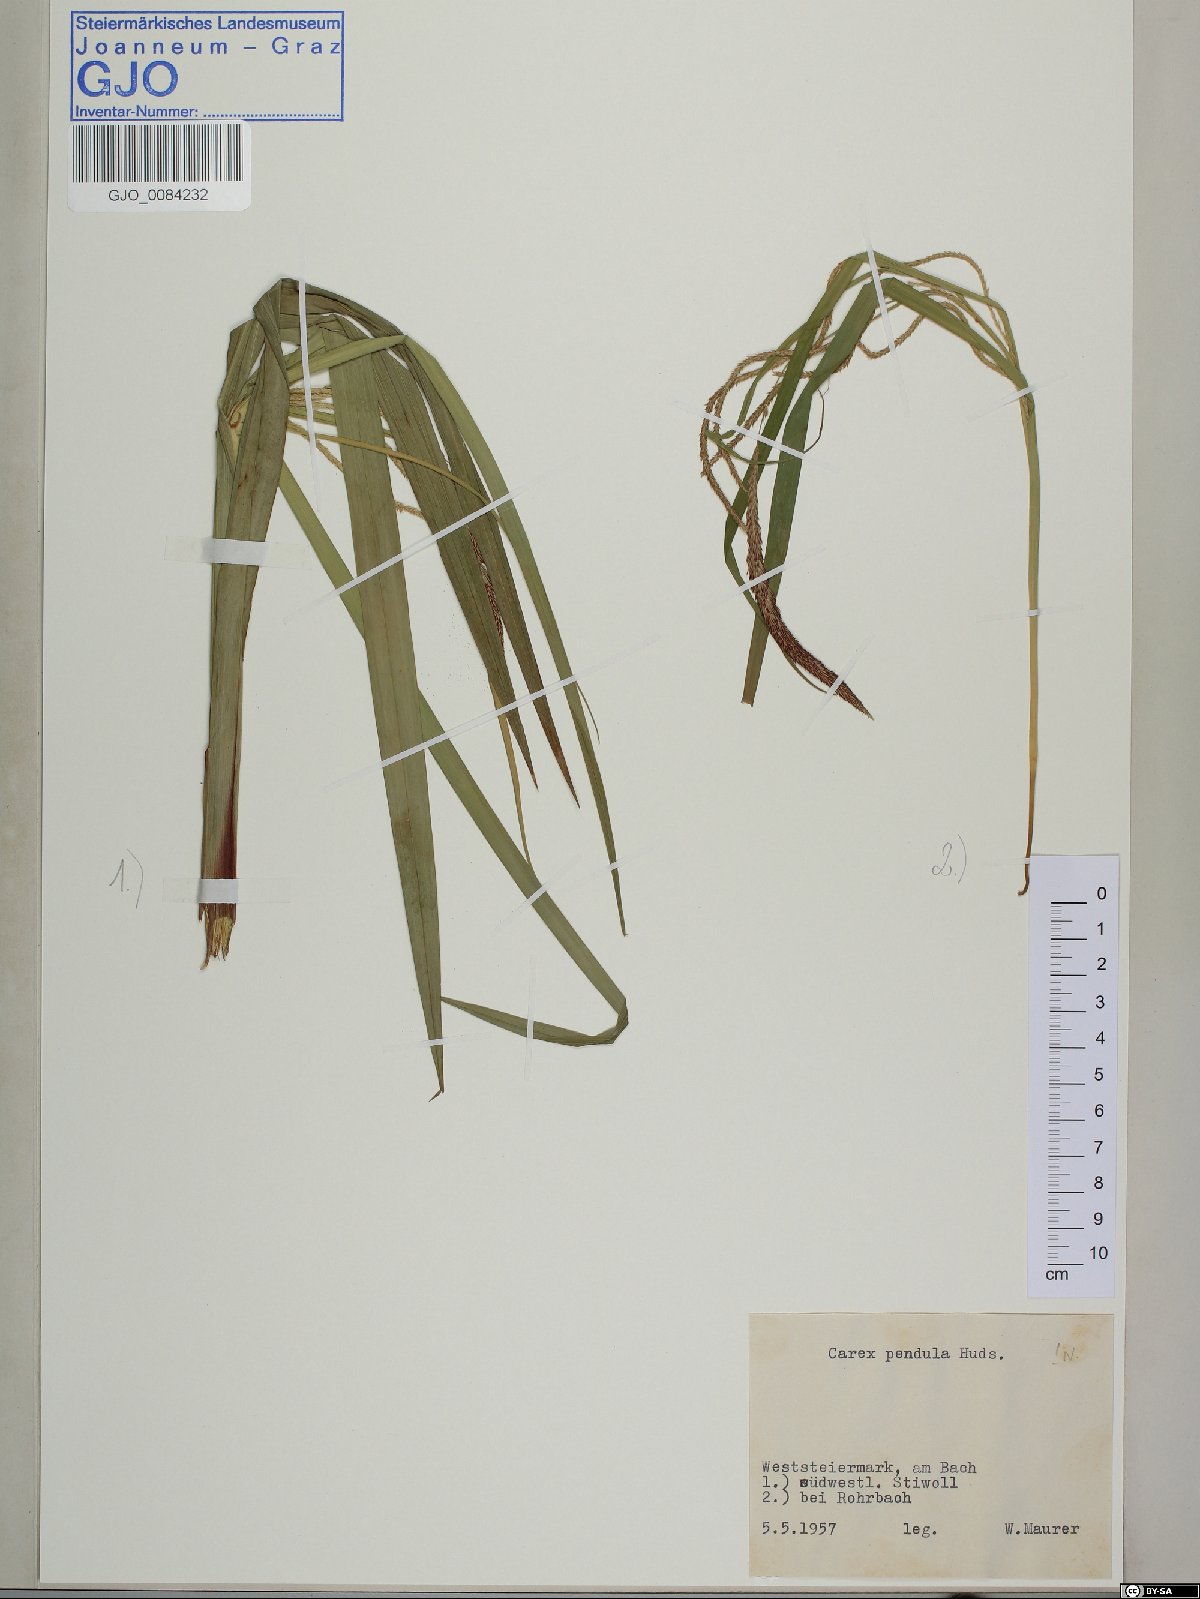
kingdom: Plantae
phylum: Tracheophyta
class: Liliopsida
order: Poales
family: Cyperaceae
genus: Carex
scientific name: Carex pendula
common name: Pendulous sedge
